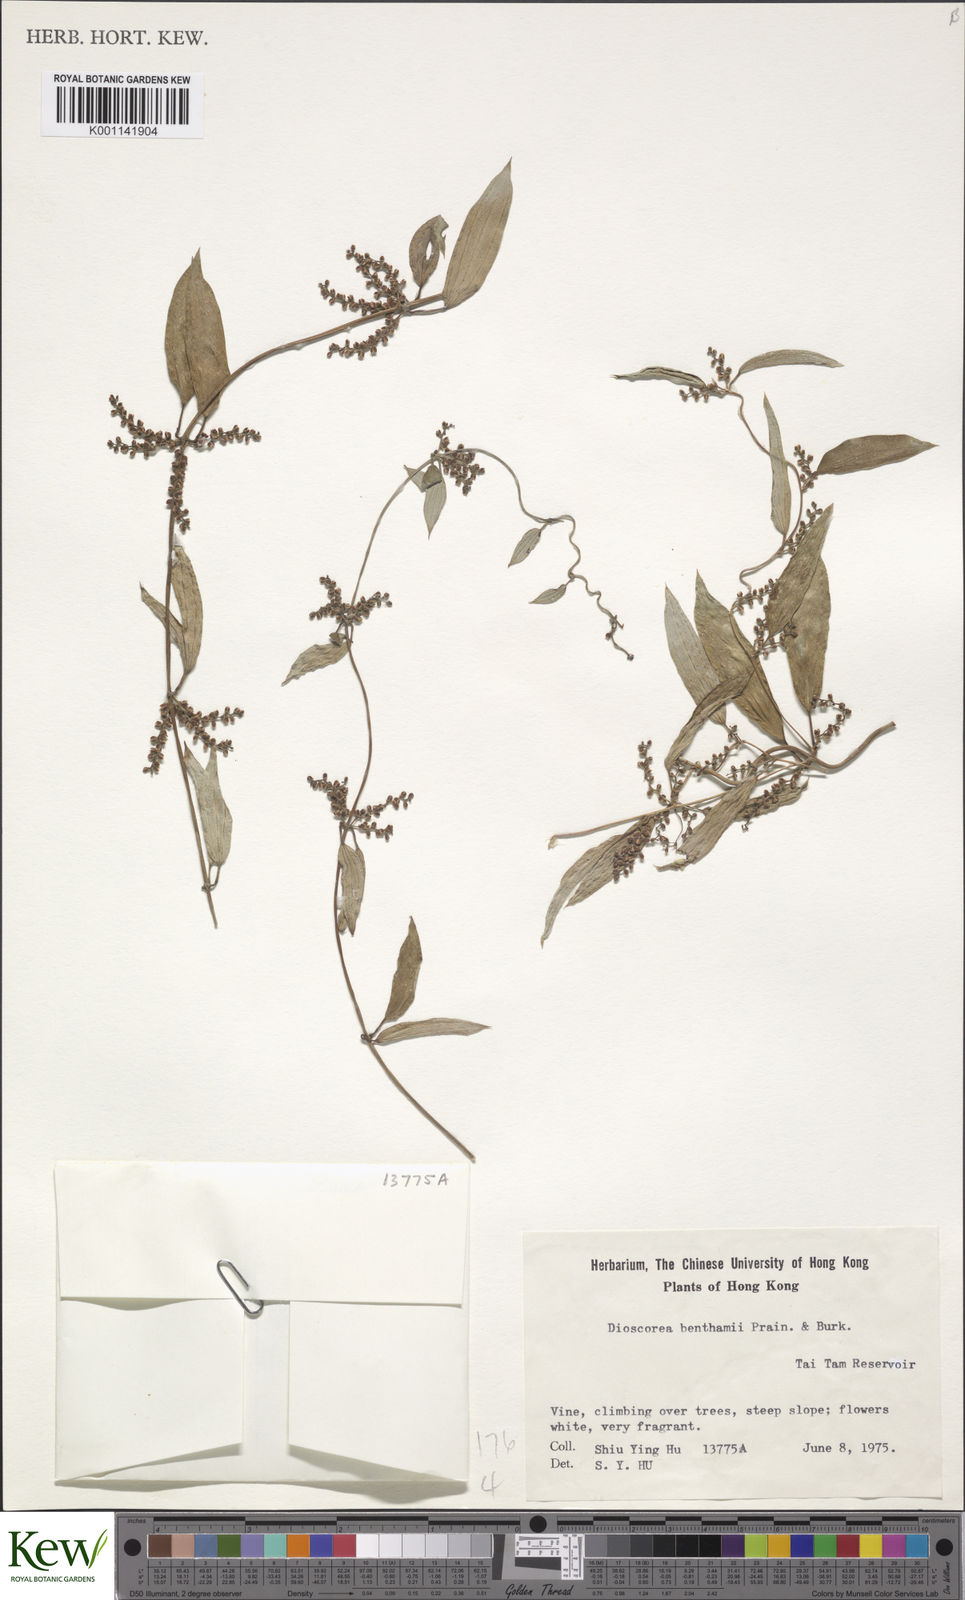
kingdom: Plantae
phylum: Tracheophyta
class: Liliopsida
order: Dioscoreales
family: Dioscoreaceae
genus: Dioscorea
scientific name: Dioscorea benthamii
